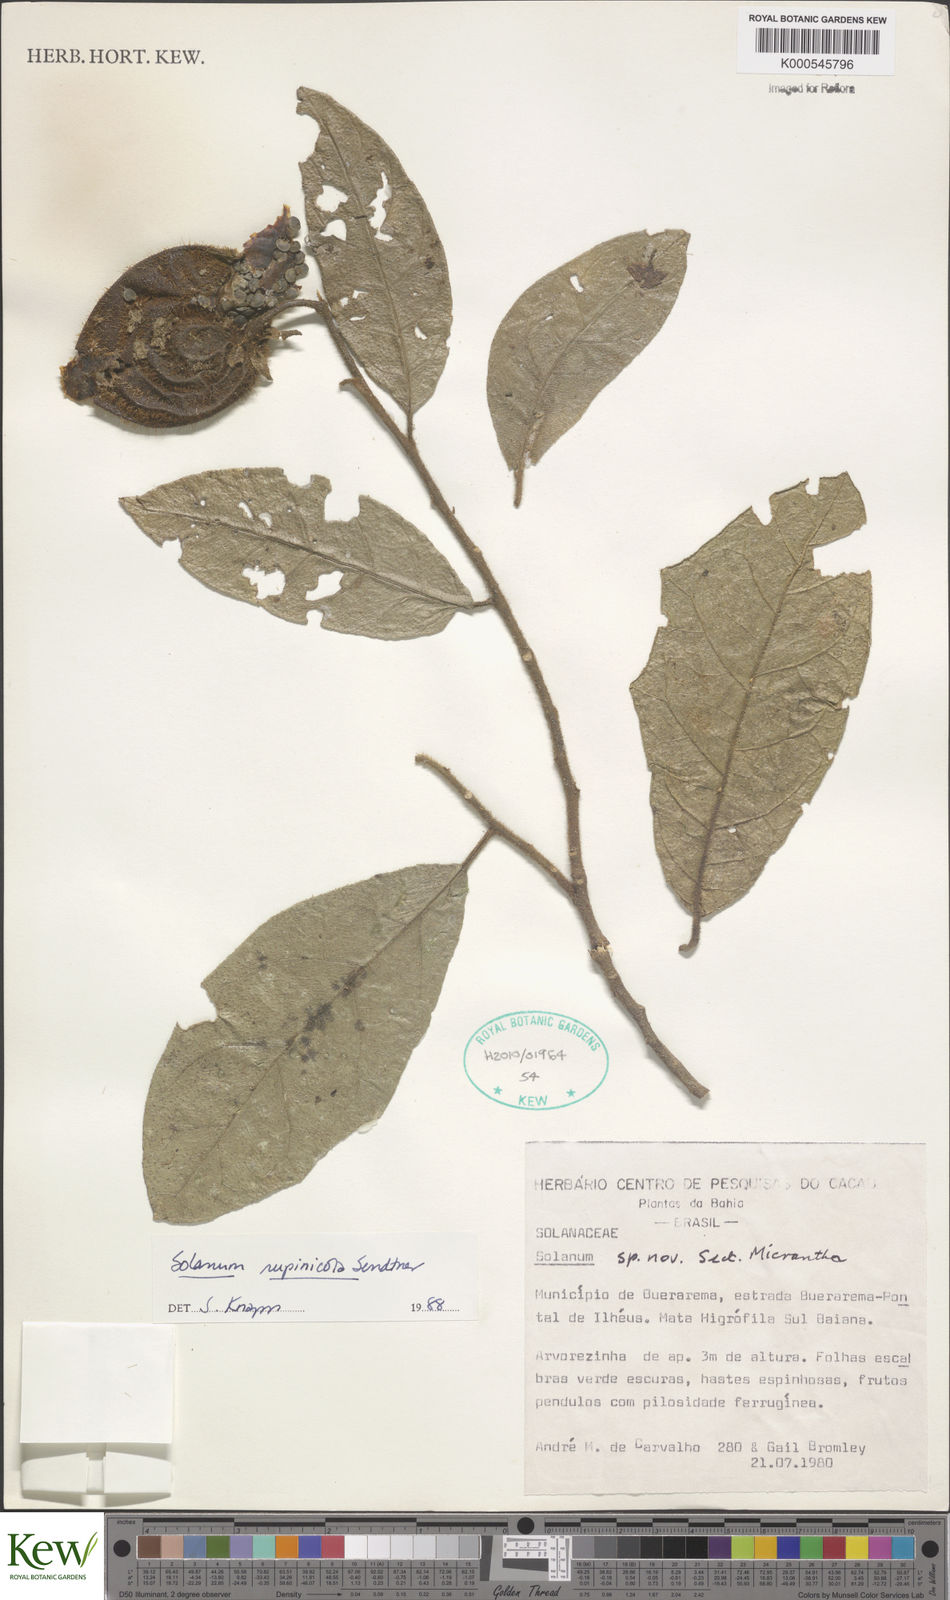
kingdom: Plantae
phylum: Tracheophyta
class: Magnoliopsida
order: Solanales
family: Solanaceae
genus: Solanum
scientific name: Solanum rupincola
